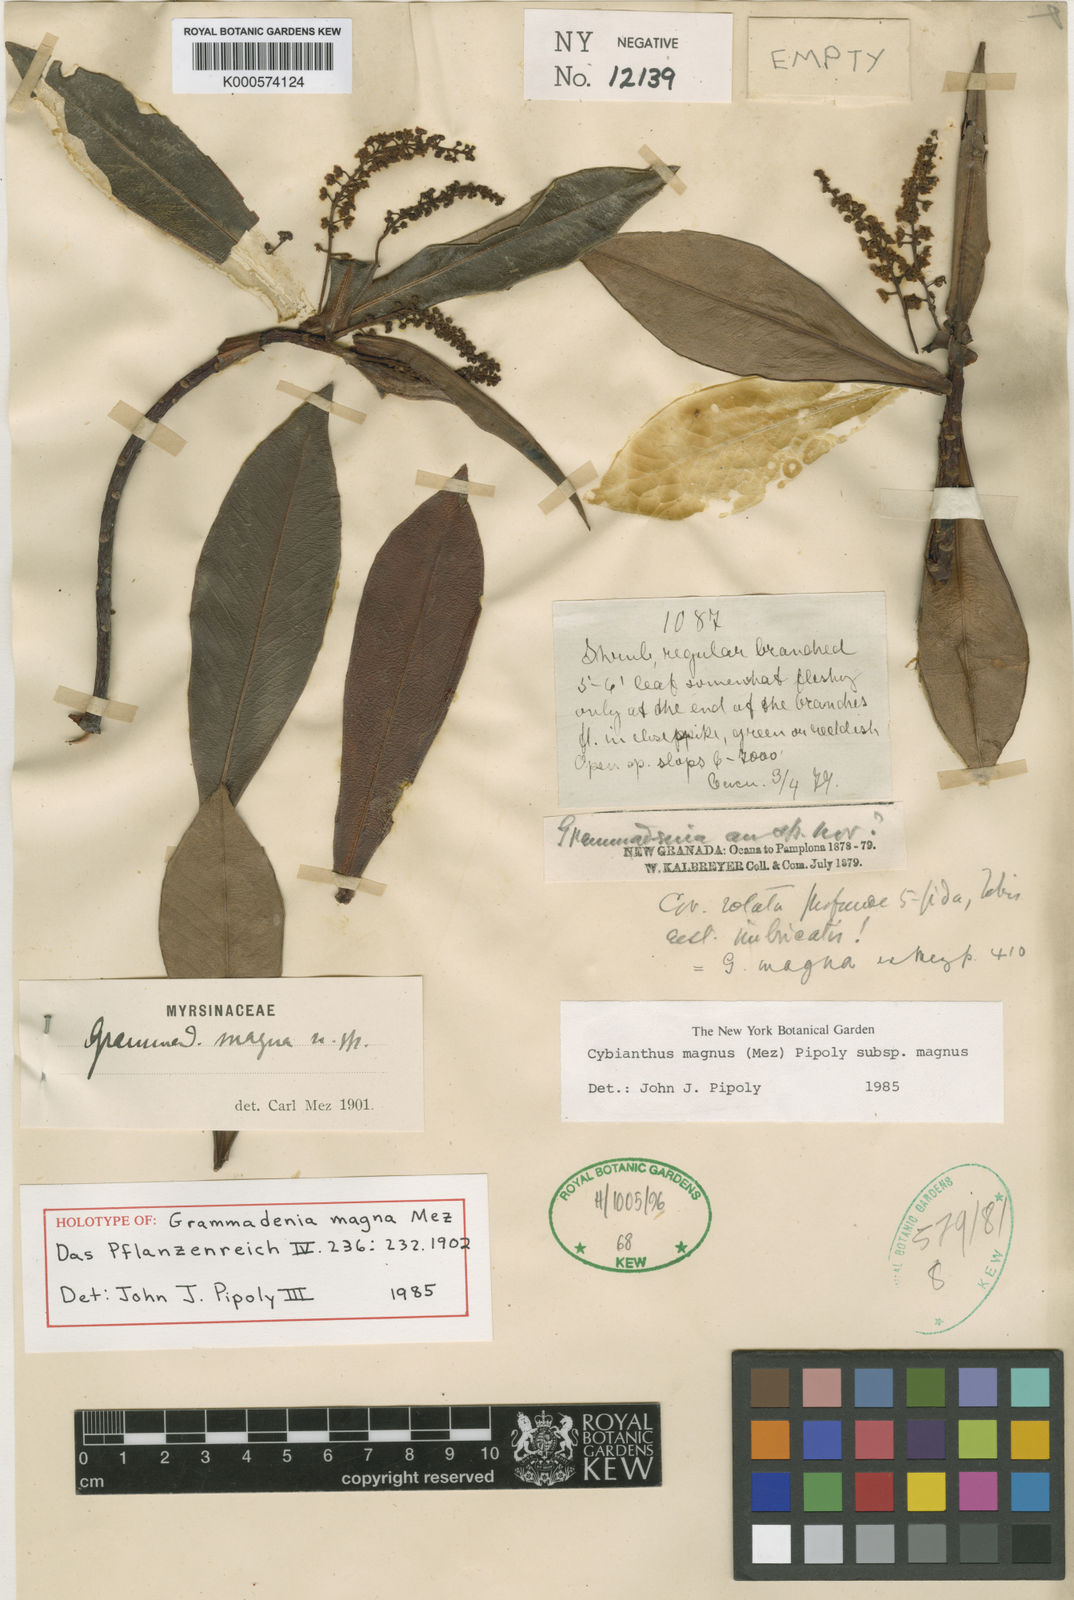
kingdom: Plantae
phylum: Tracheophyta
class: Magnoliopsida
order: Ericales
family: Primulaceae
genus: Cybianthus
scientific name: Cybianthus magnus
